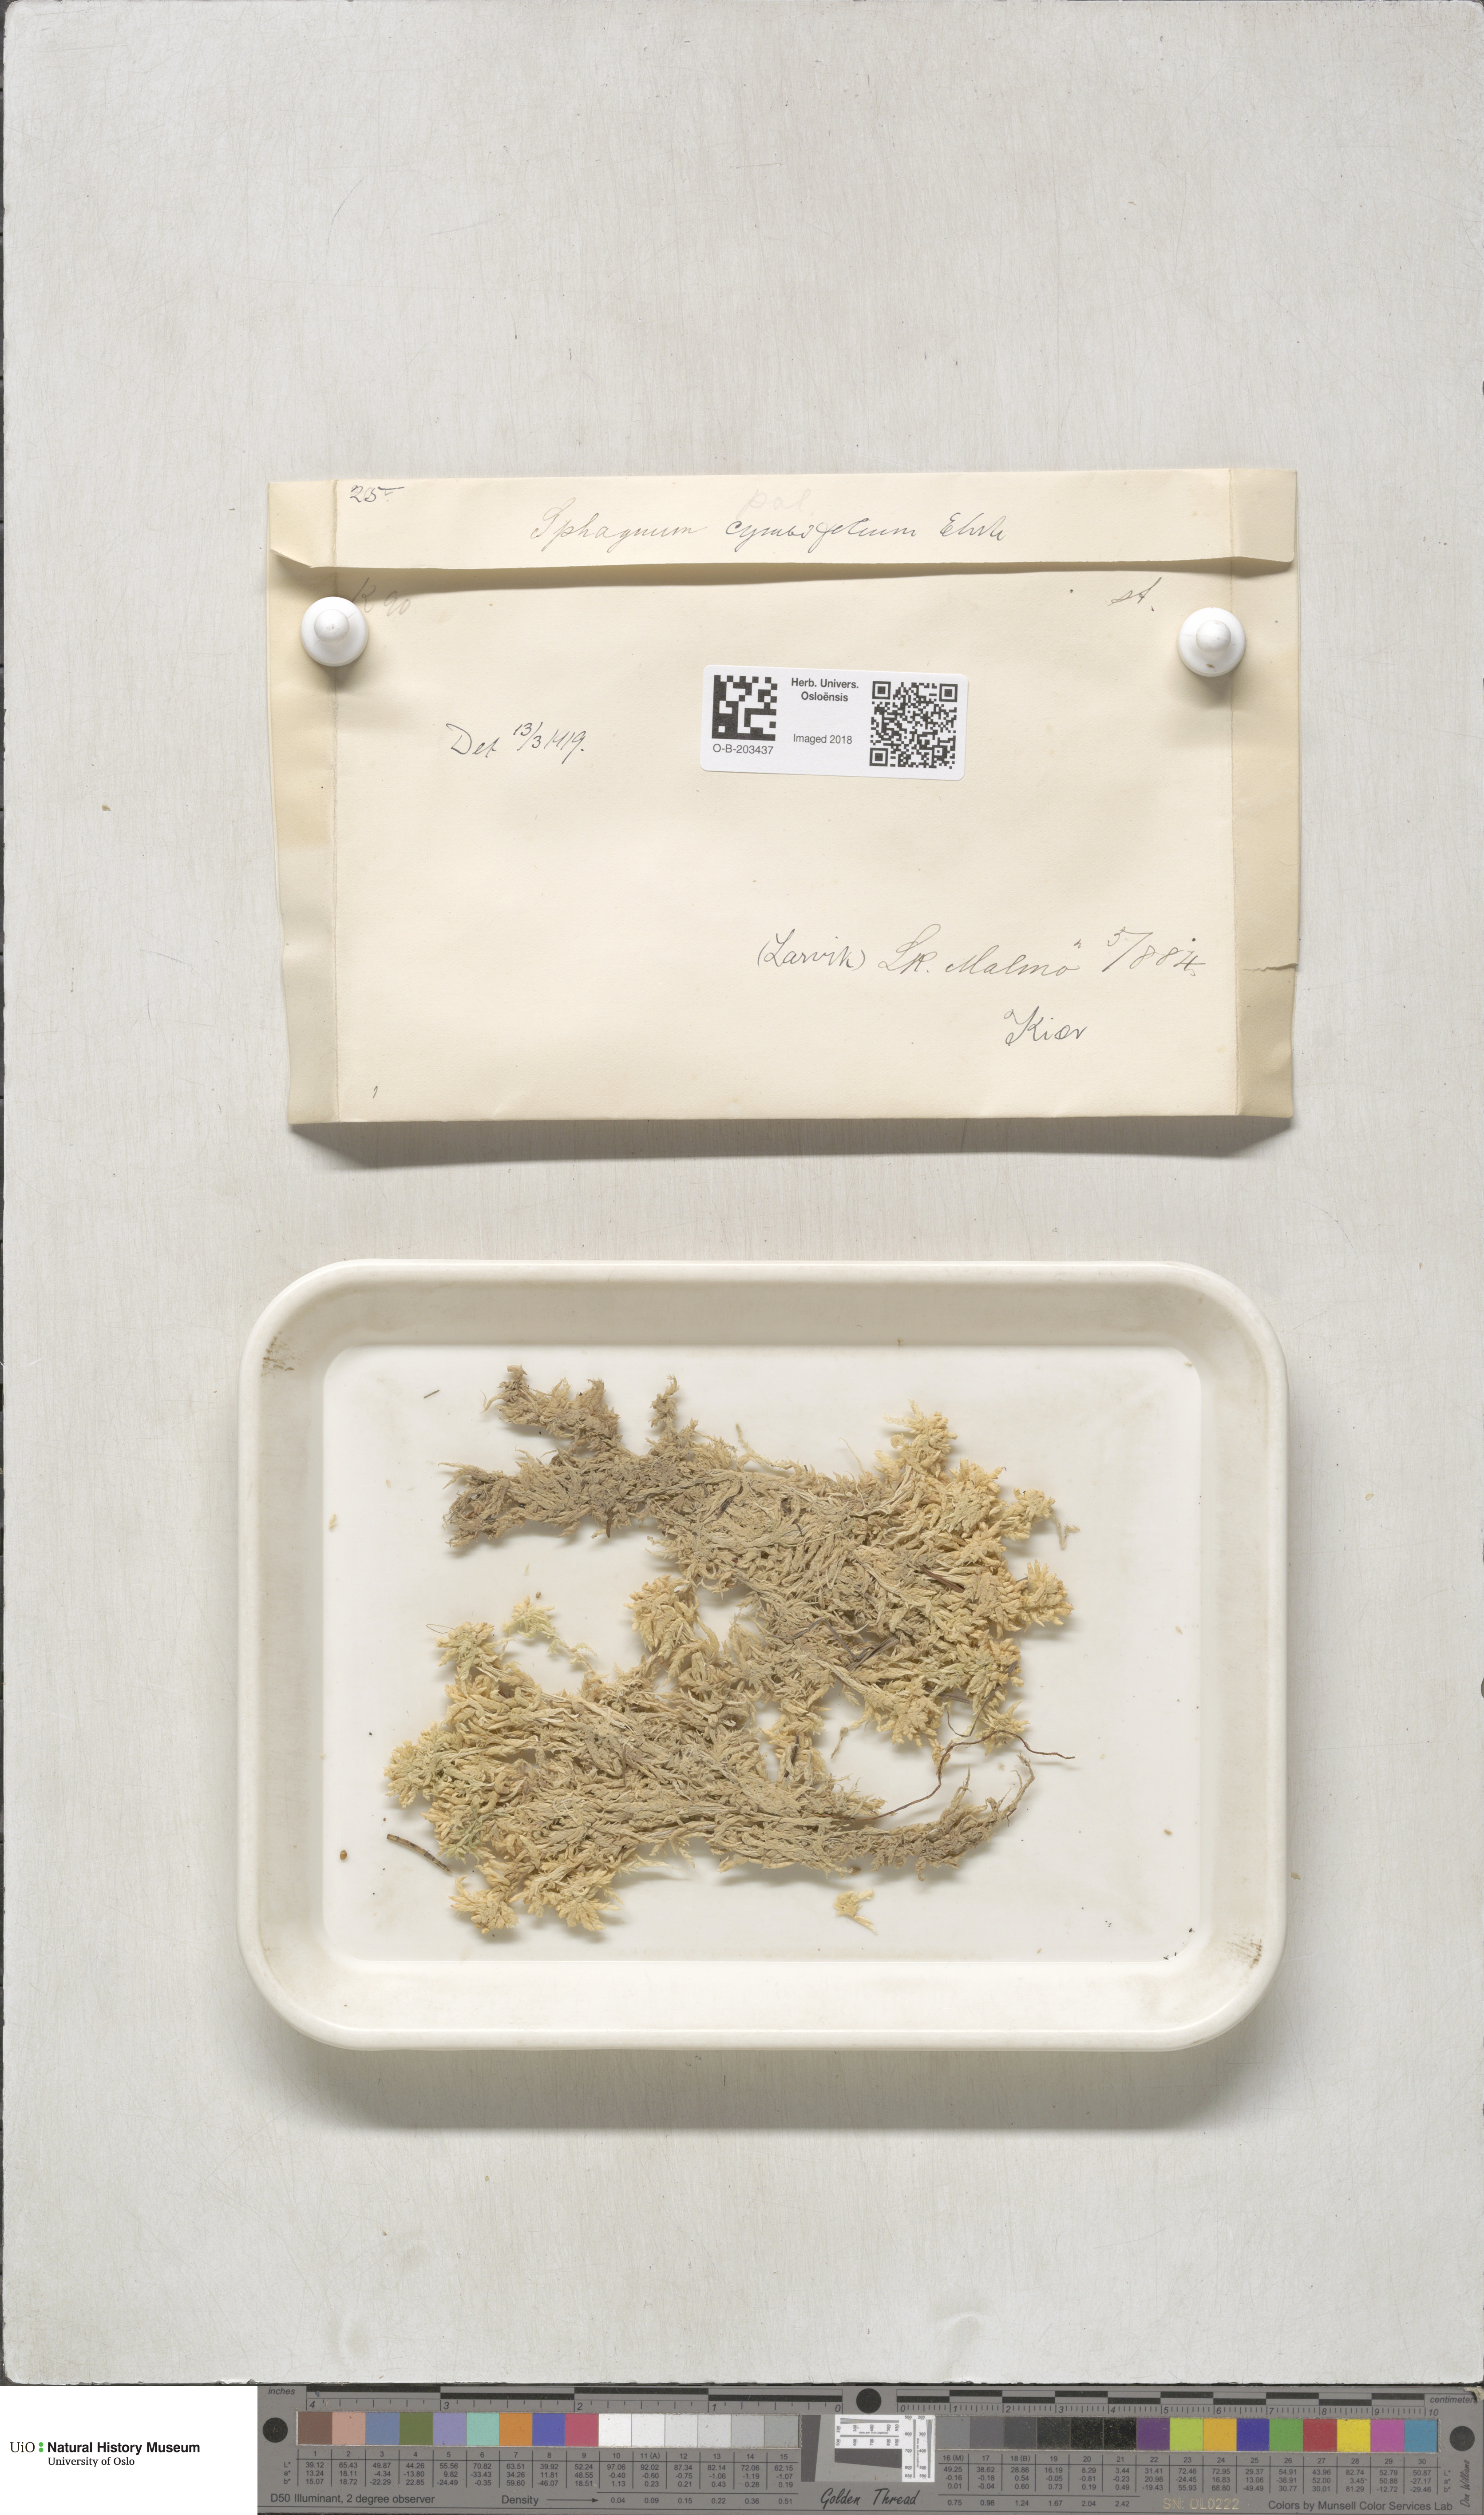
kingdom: Plantae
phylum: Bryophyta
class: Sphagnopsida
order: Sphagnales
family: Sphagnaceae
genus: Sphagnum
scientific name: Sphagnum palustre
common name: Blunt-leaved bog-moss
